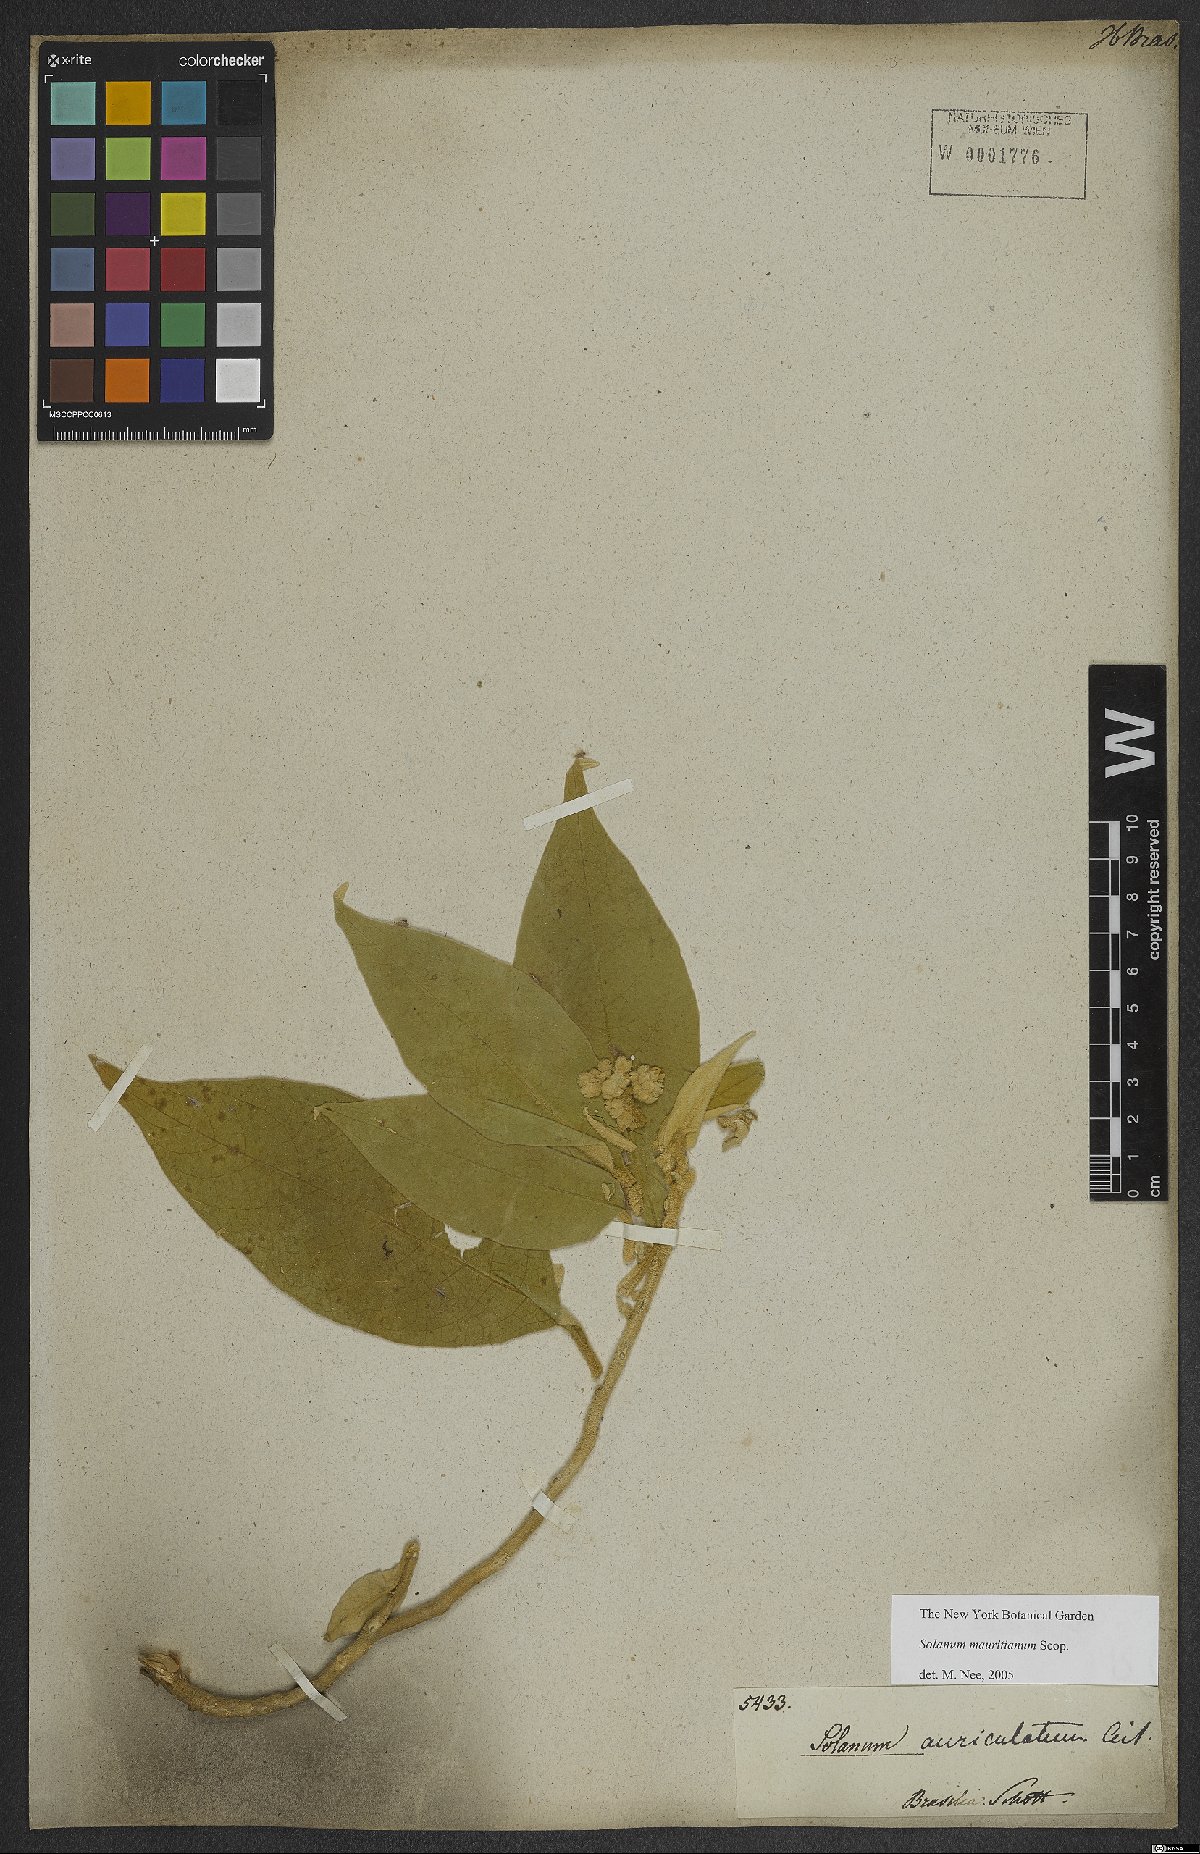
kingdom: Plantae
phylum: Tracheophyta
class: Magnoliopsida
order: Solanales
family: Solanaceae
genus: Solanum
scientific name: Solanum mauritianum
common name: Earleaf nightshade
